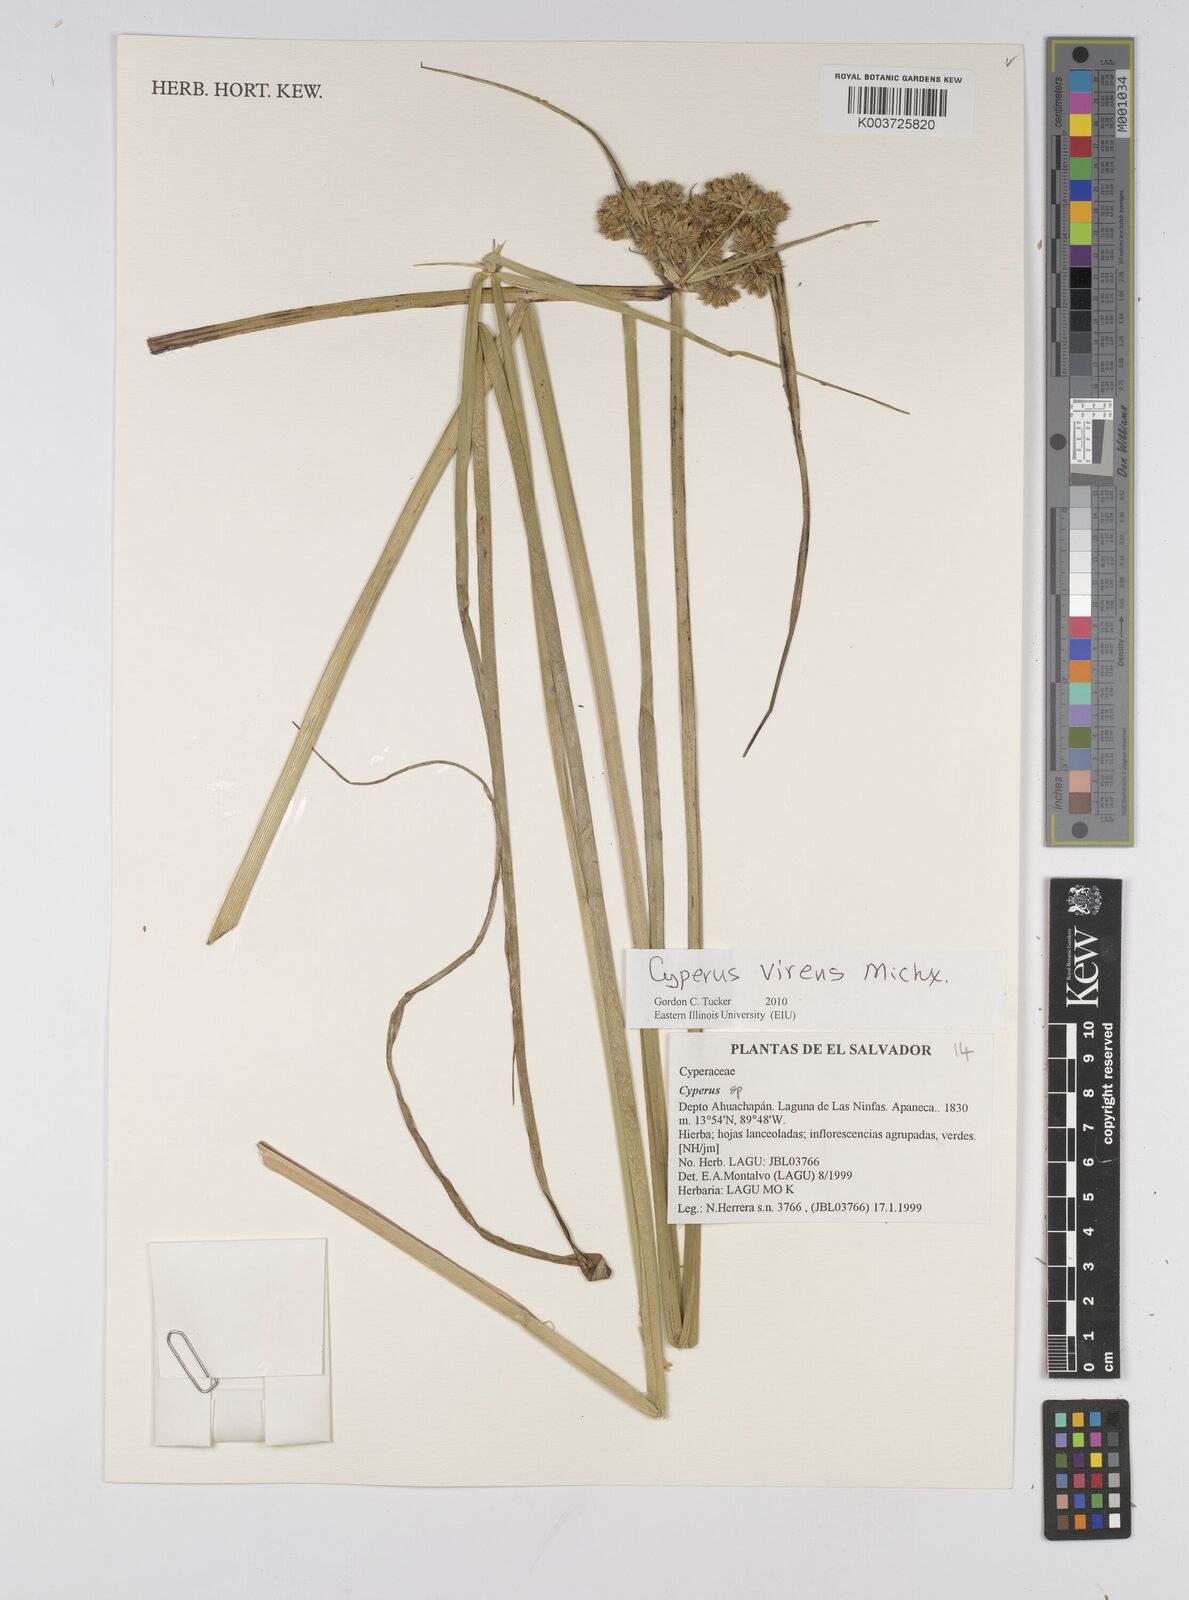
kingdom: Plantae
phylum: Tracheophyta
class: Liliopsida
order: Poales
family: Cyperaceae
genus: Cyperus
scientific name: Cyperus virens
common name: Green flatsedge
